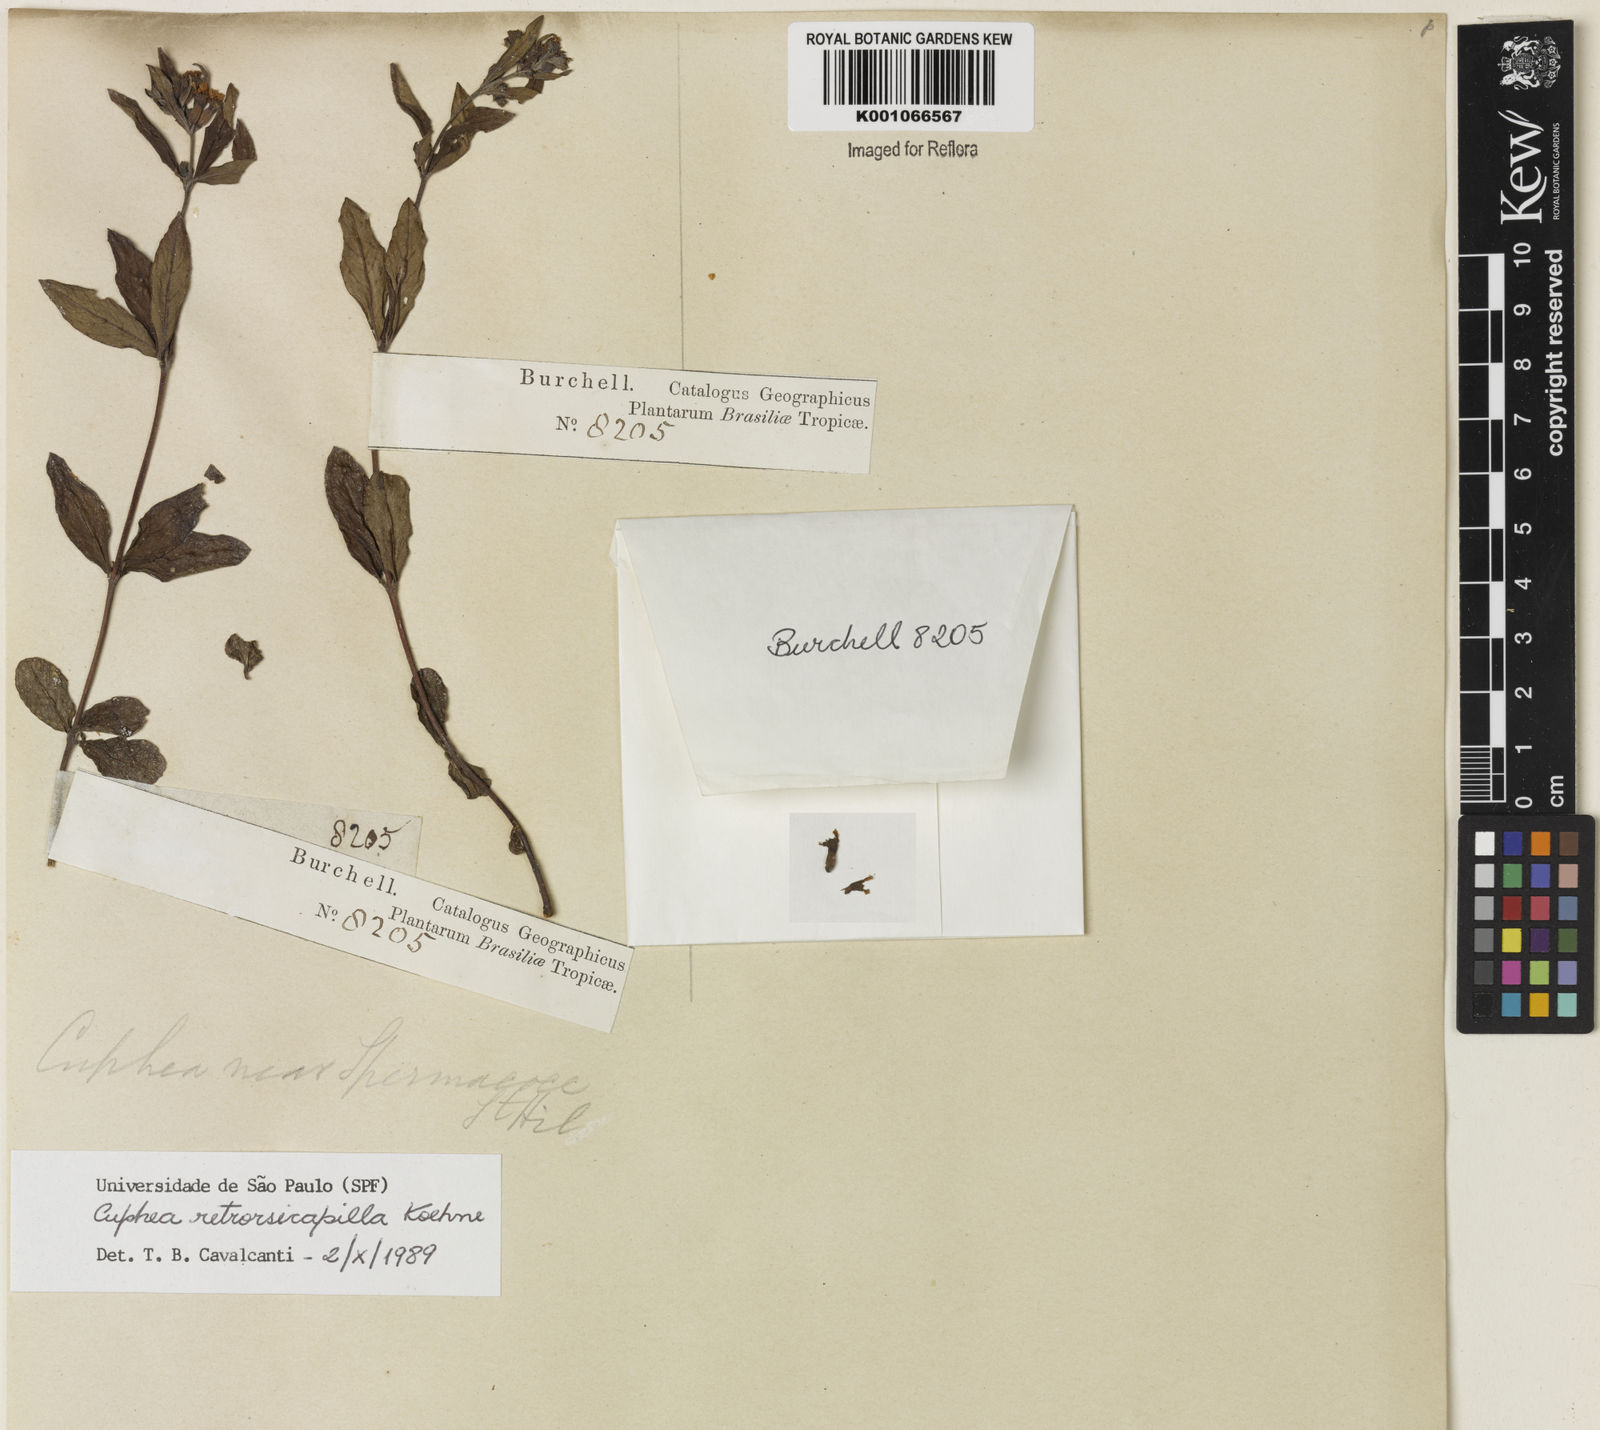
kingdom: Plantae
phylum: Tracheophyta
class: Magnoliopsida
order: Myrtales
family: Lythraceae
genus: Cuphea
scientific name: Cuphea retrorsicapilla
